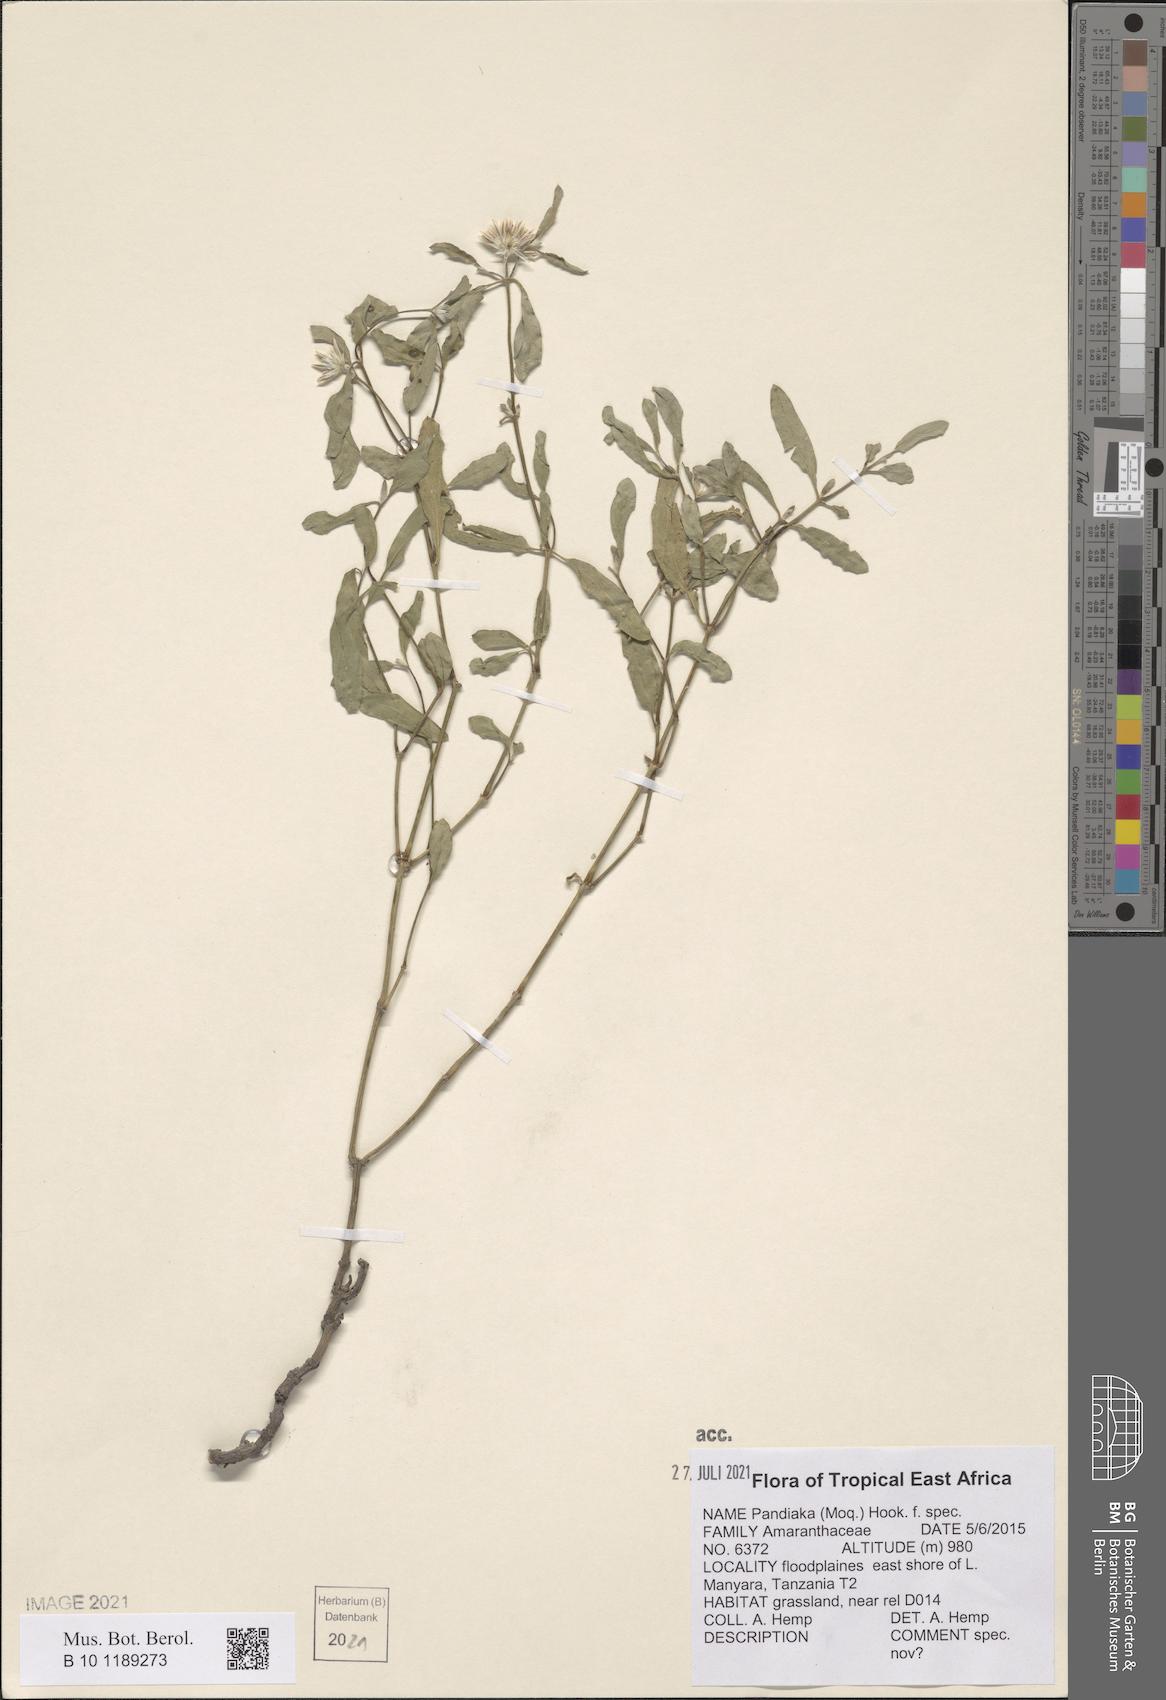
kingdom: Plantae
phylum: Tracheophyta
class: Magnoliopsida
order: Caryophyllales
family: Amaranthaceae
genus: Pandiaka
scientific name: Pandiaka
